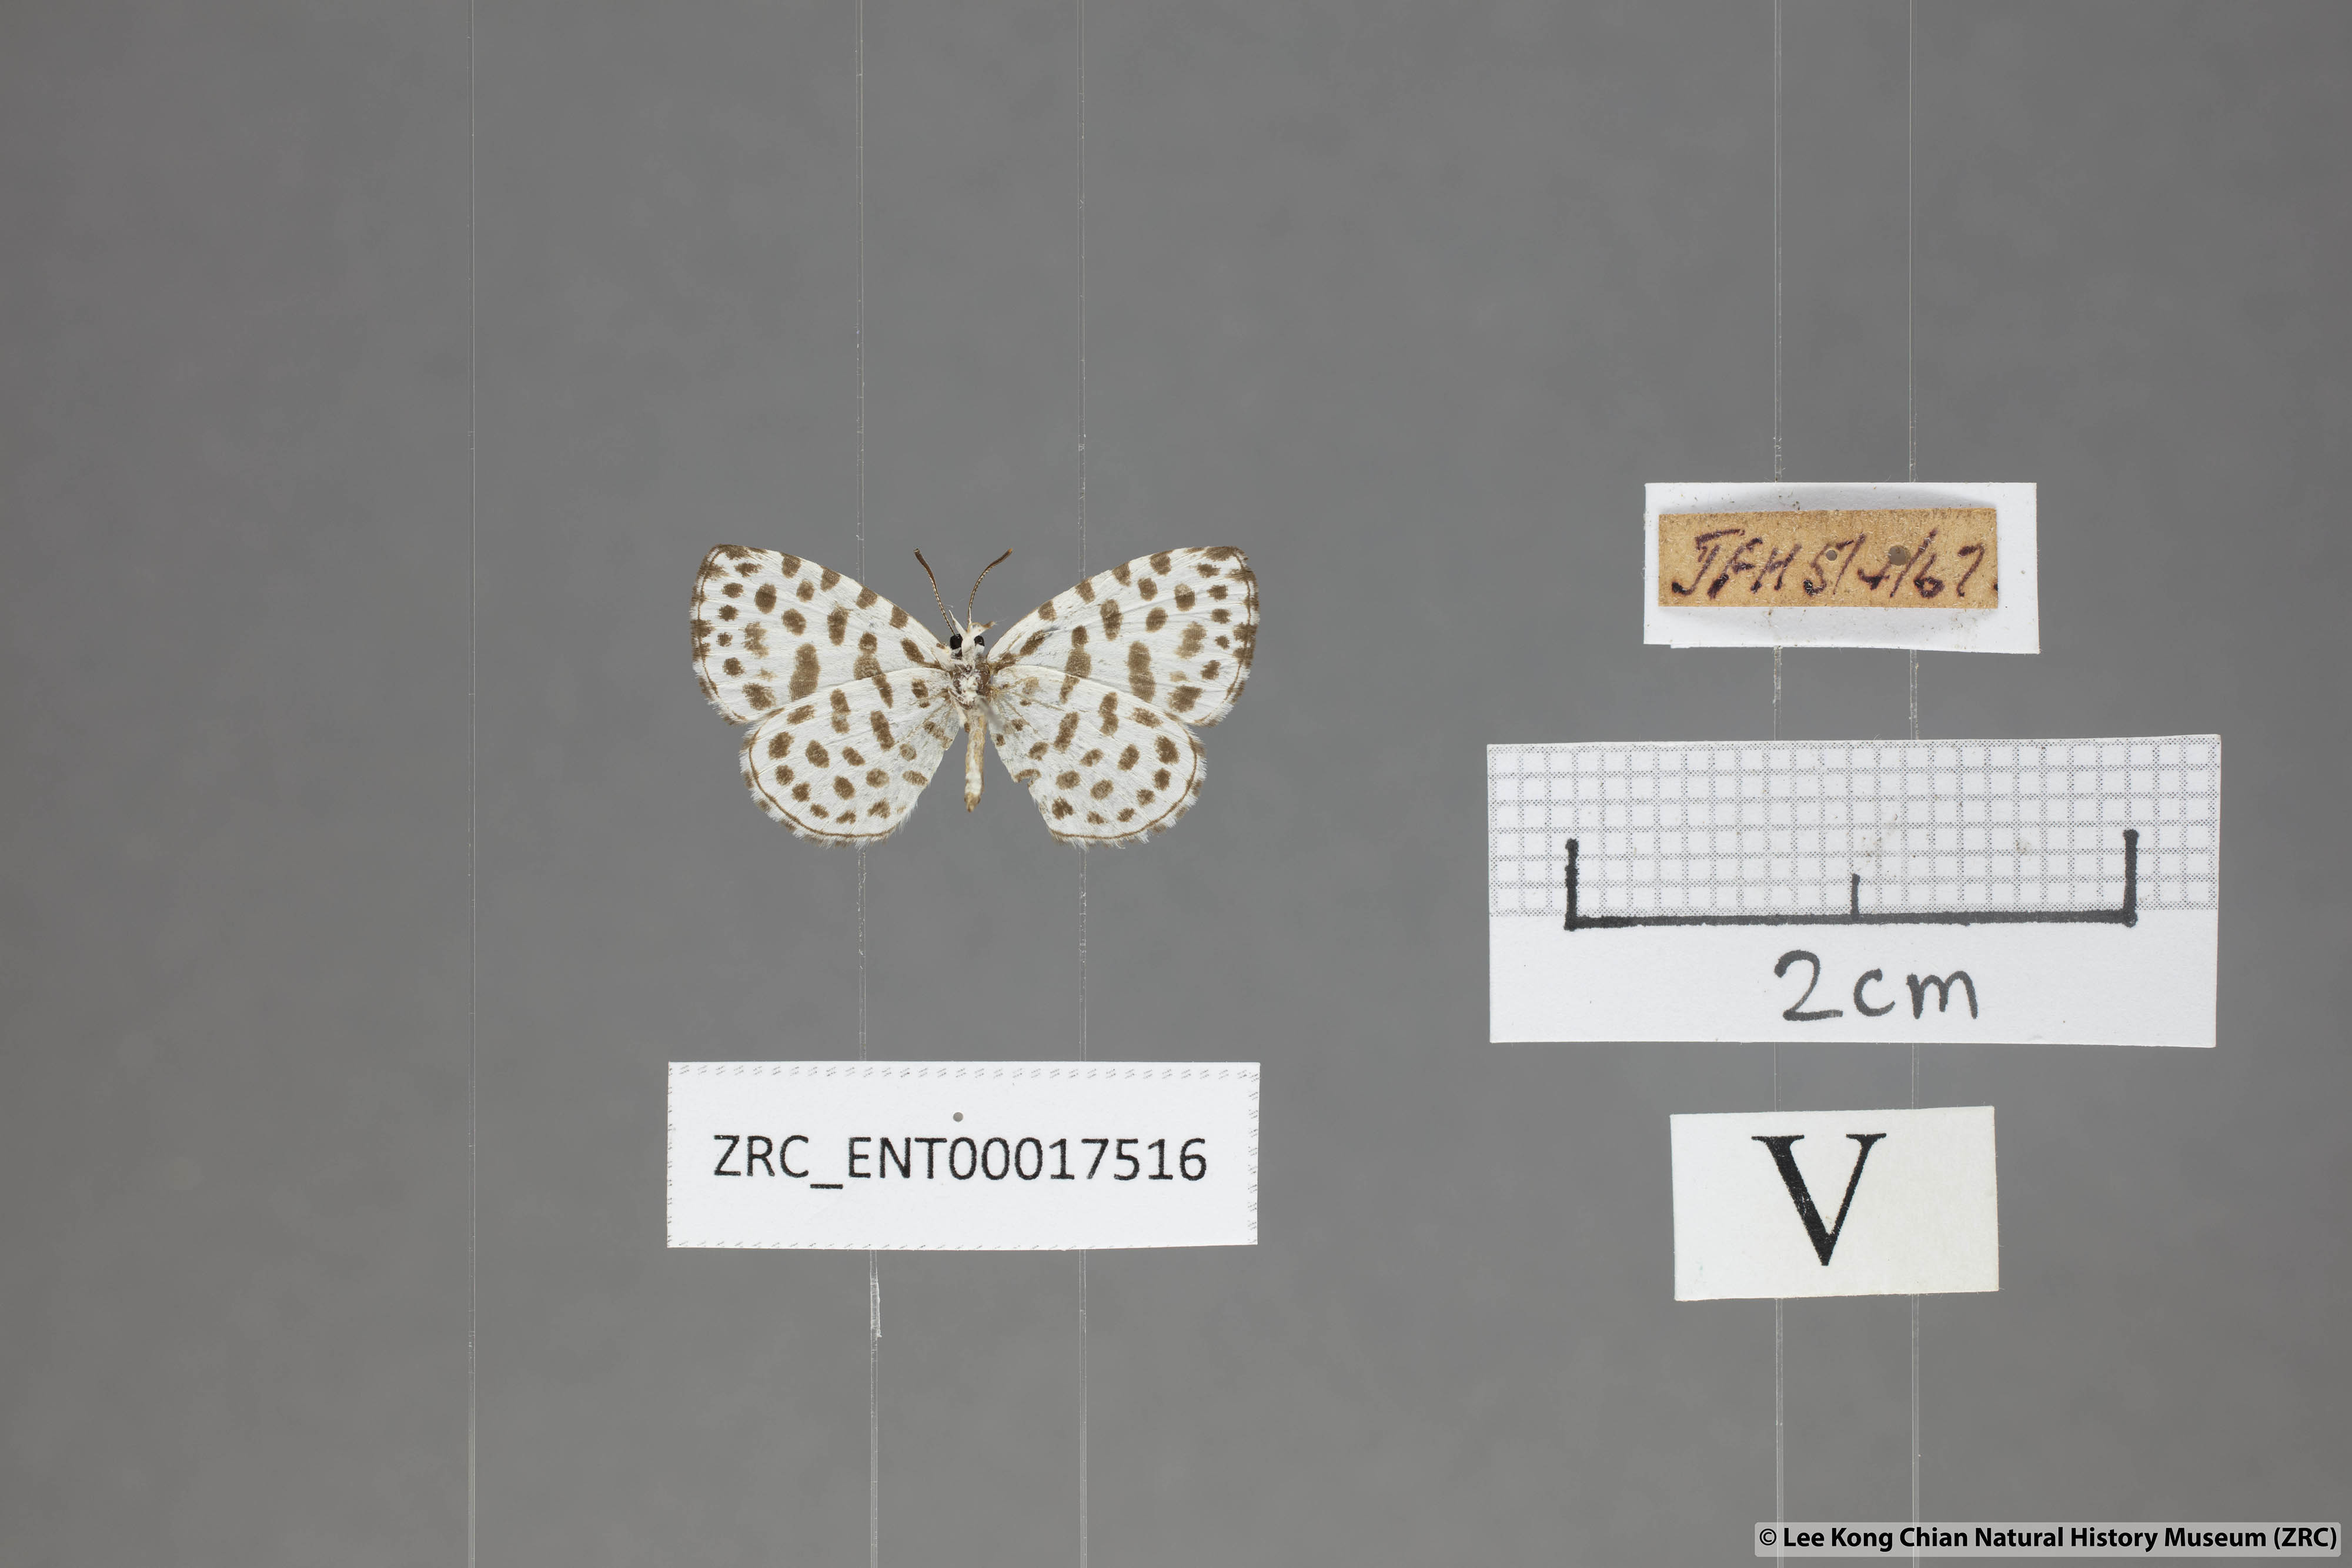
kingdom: Animalia
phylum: Arthropoda
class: Insecta
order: Lepidoptera
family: Lycaenidae
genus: Taraka
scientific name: Taraka hamada
